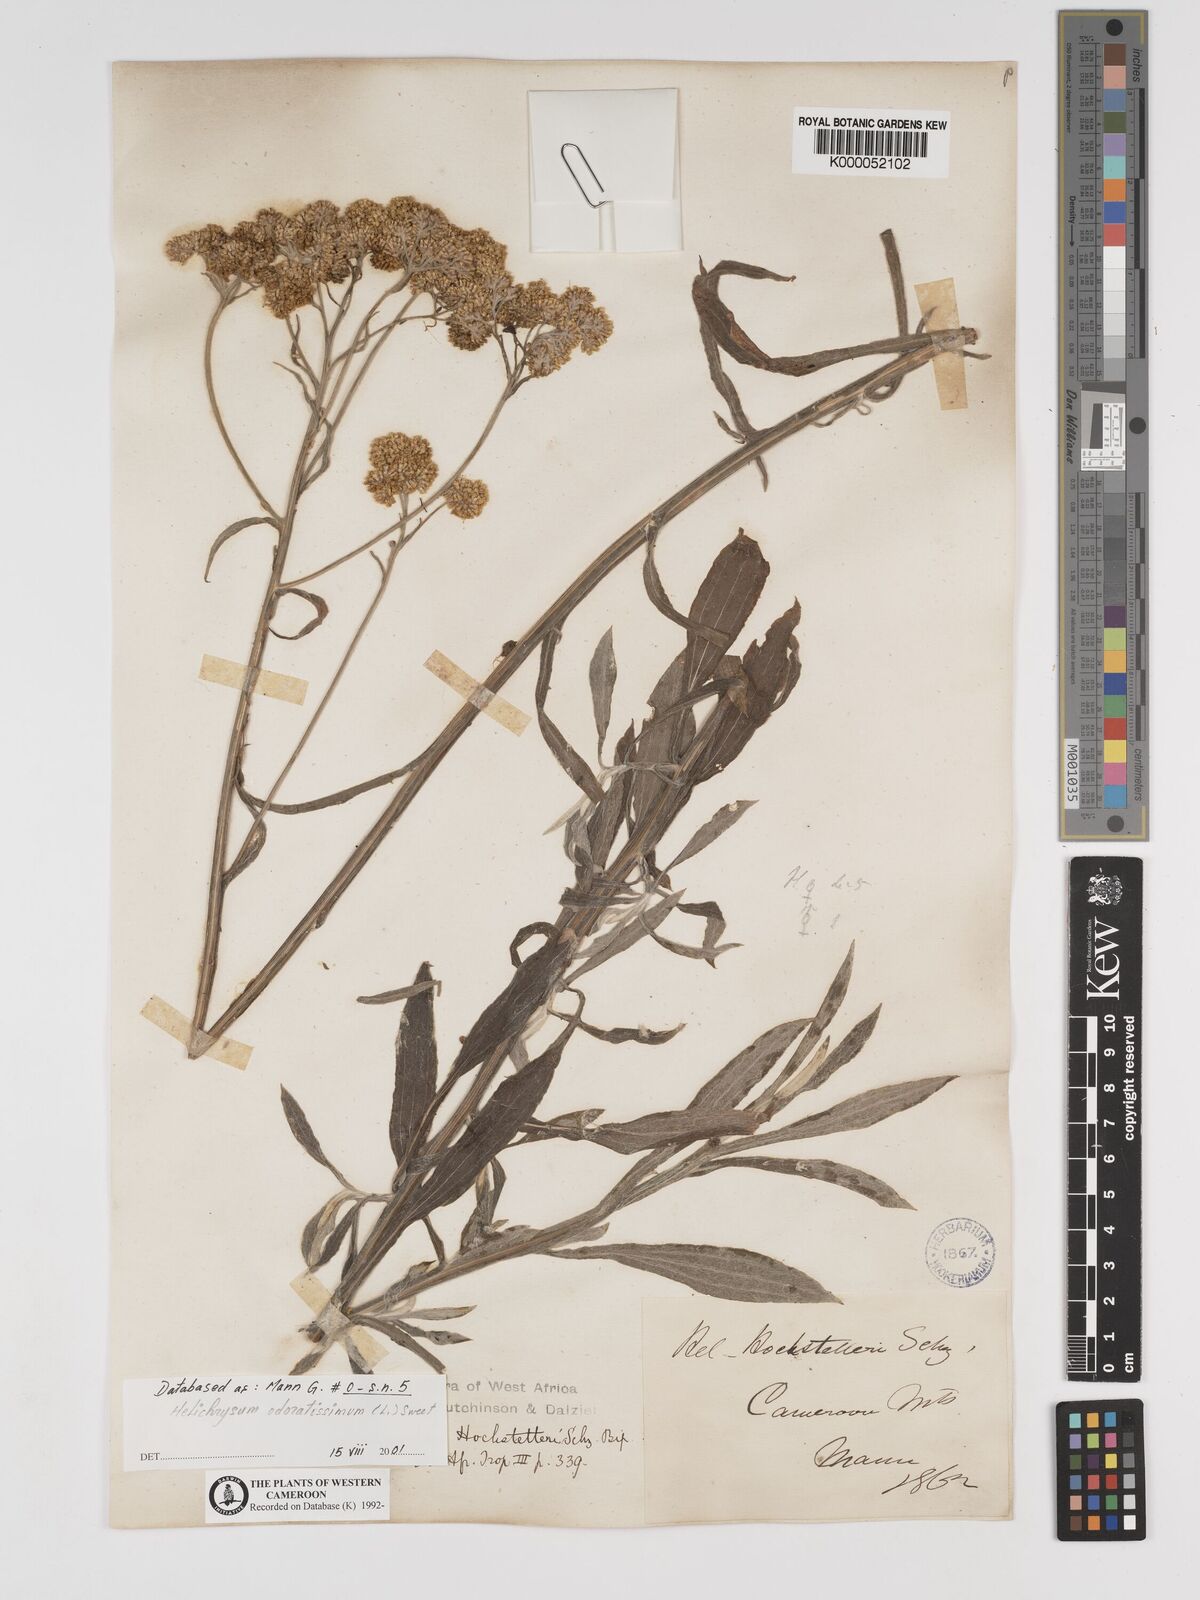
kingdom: Plantae
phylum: Tracheophyta
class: Magnoliopsida
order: Asterales
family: Asteraceae
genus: Helichrysum
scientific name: Helichrysum odoratissimum
